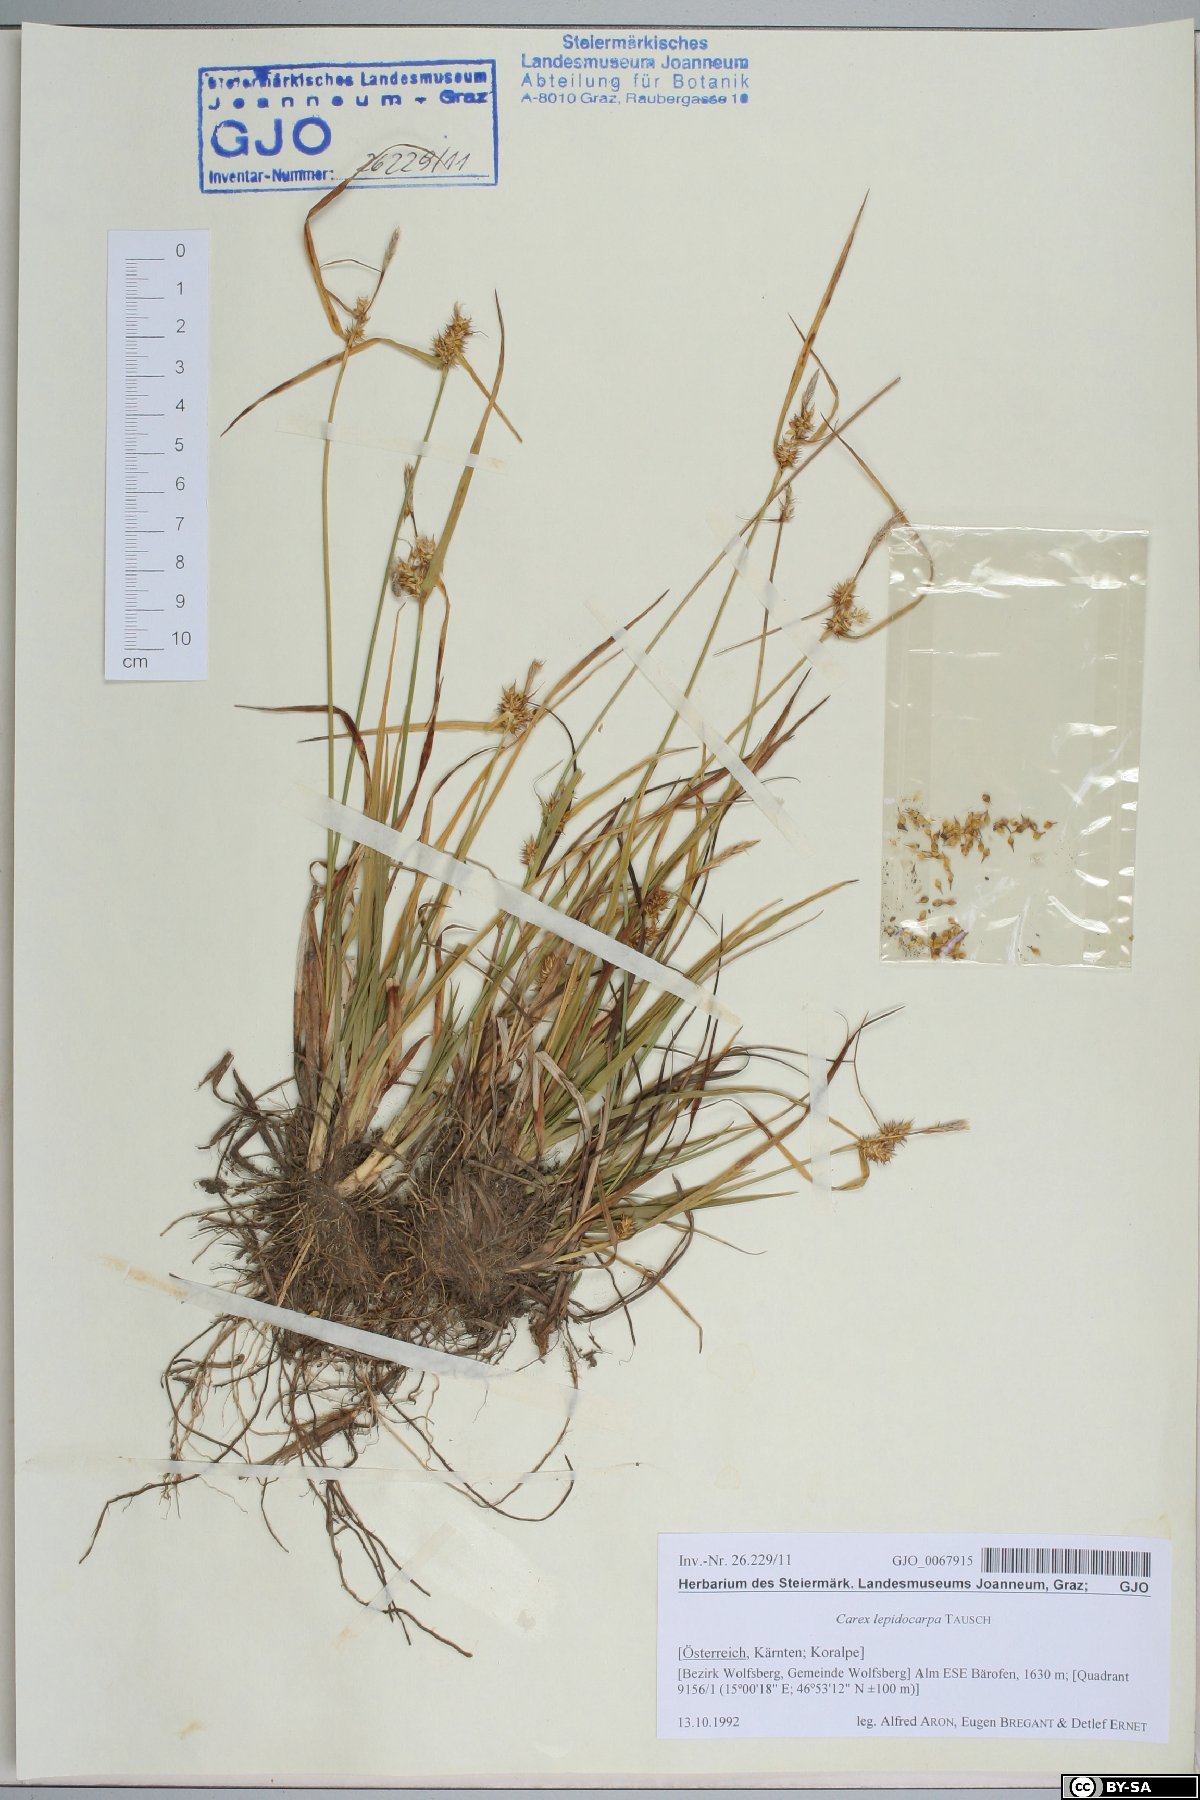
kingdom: Plantae
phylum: Tracheophyta
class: Liliopsida
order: Poales
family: Cyperaceae
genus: Carex
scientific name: Carex lepidocarpa
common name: Long-stalked yellow-sedge
